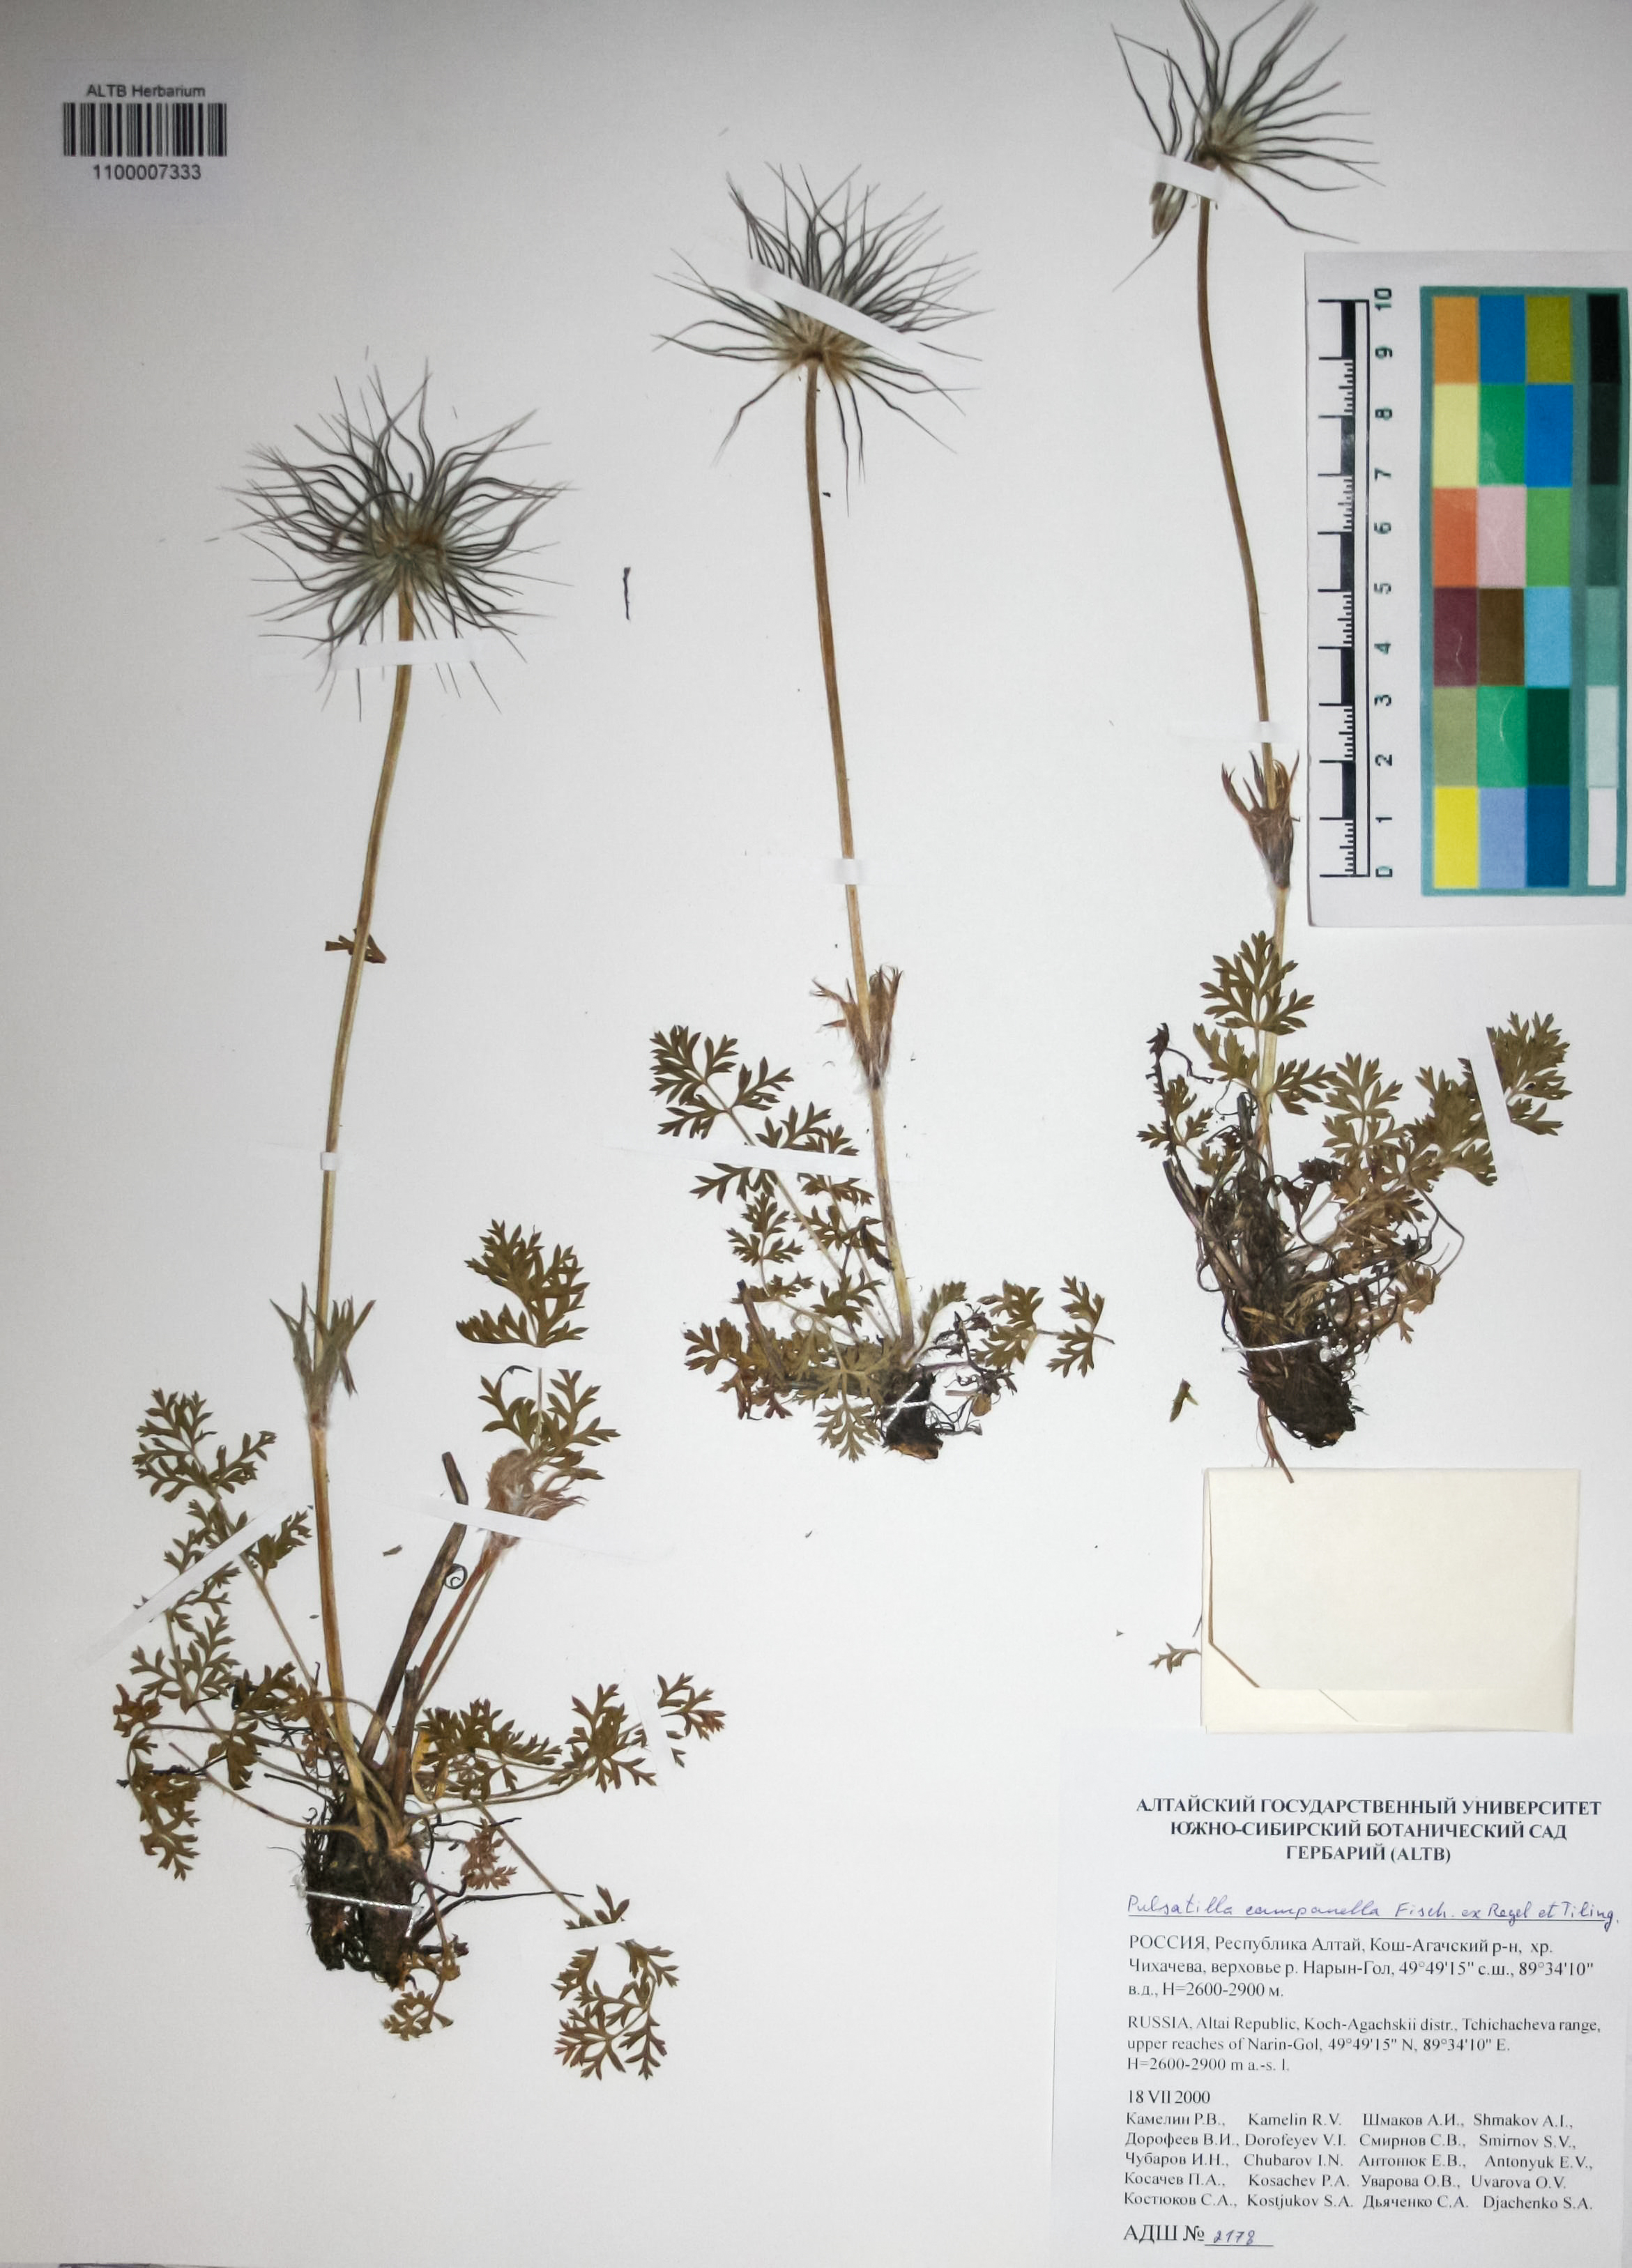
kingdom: Plantae
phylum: Tracheophyta
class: Magnoliopsida
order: Ranunculales
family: Ranunculaceae
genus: Pulsatilla
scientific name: Pulsatilla campanella
